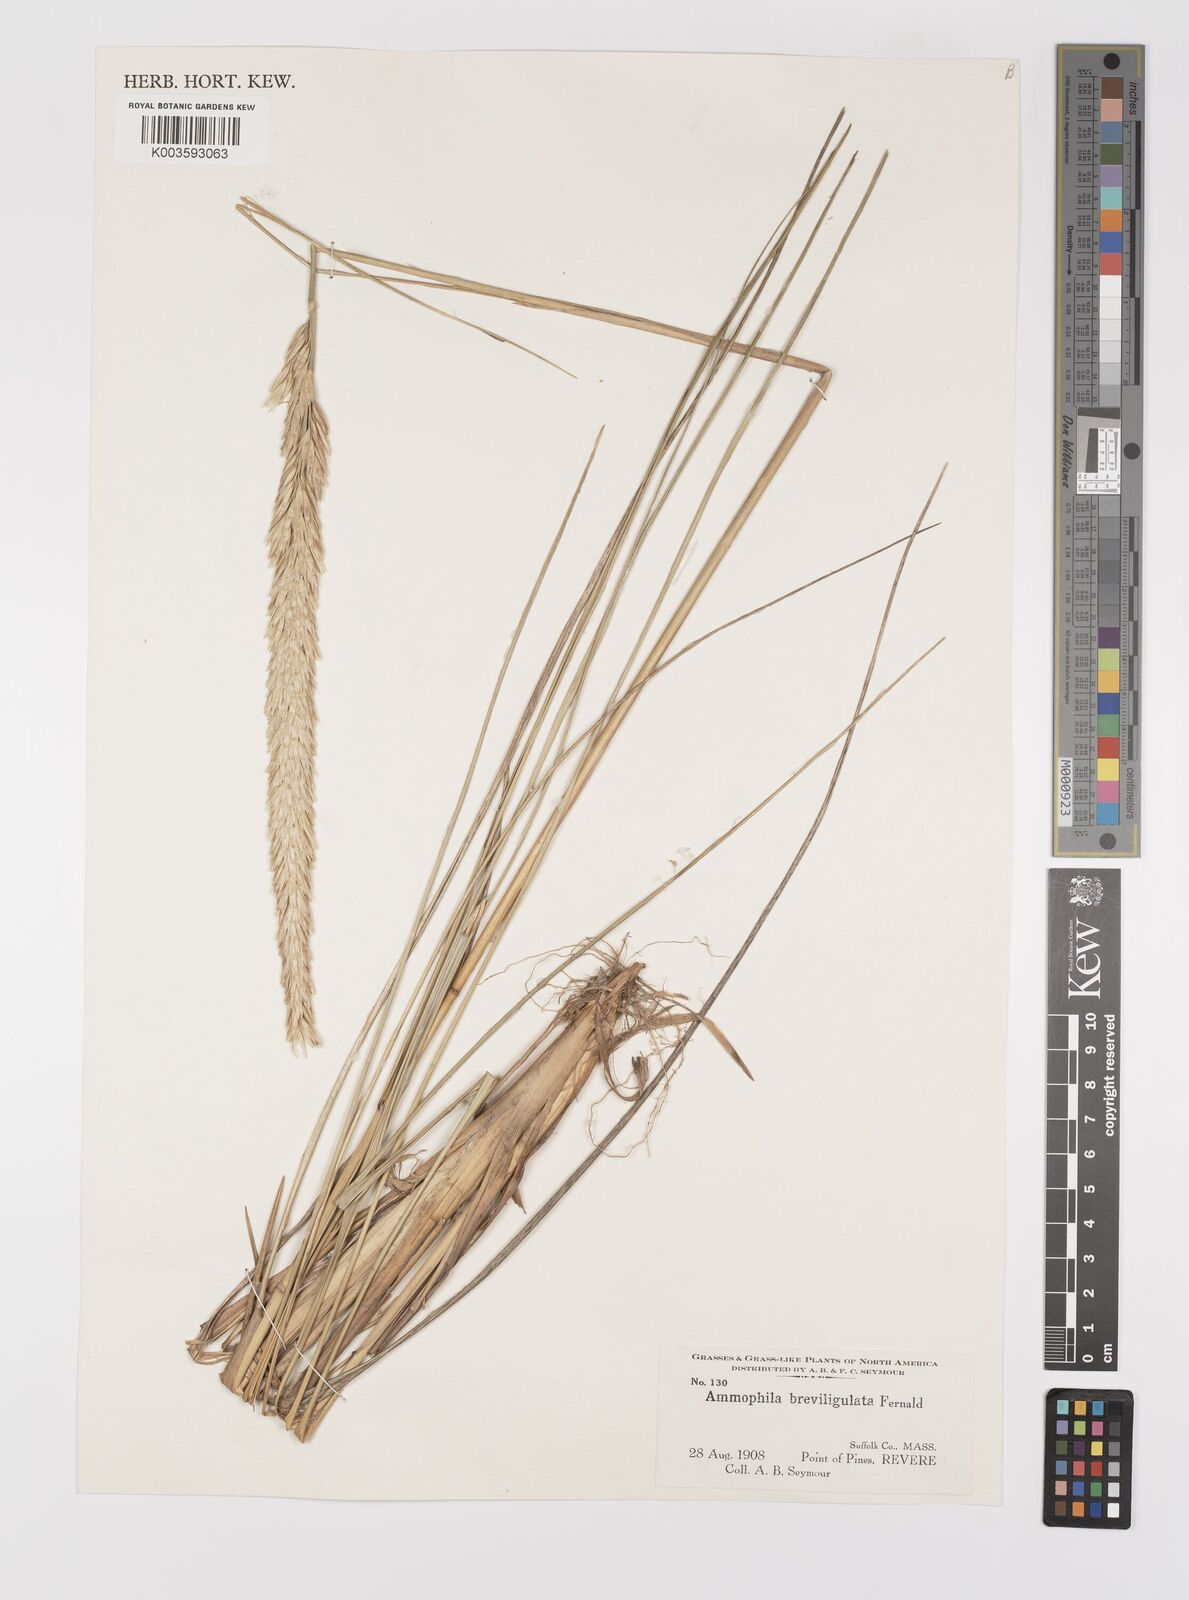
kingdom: Plantae
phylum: Tracheophyta
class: Liliopsida
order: Poales
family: Poaceae
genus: Calamagrostis
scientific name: Calamagrostis breviligulata
